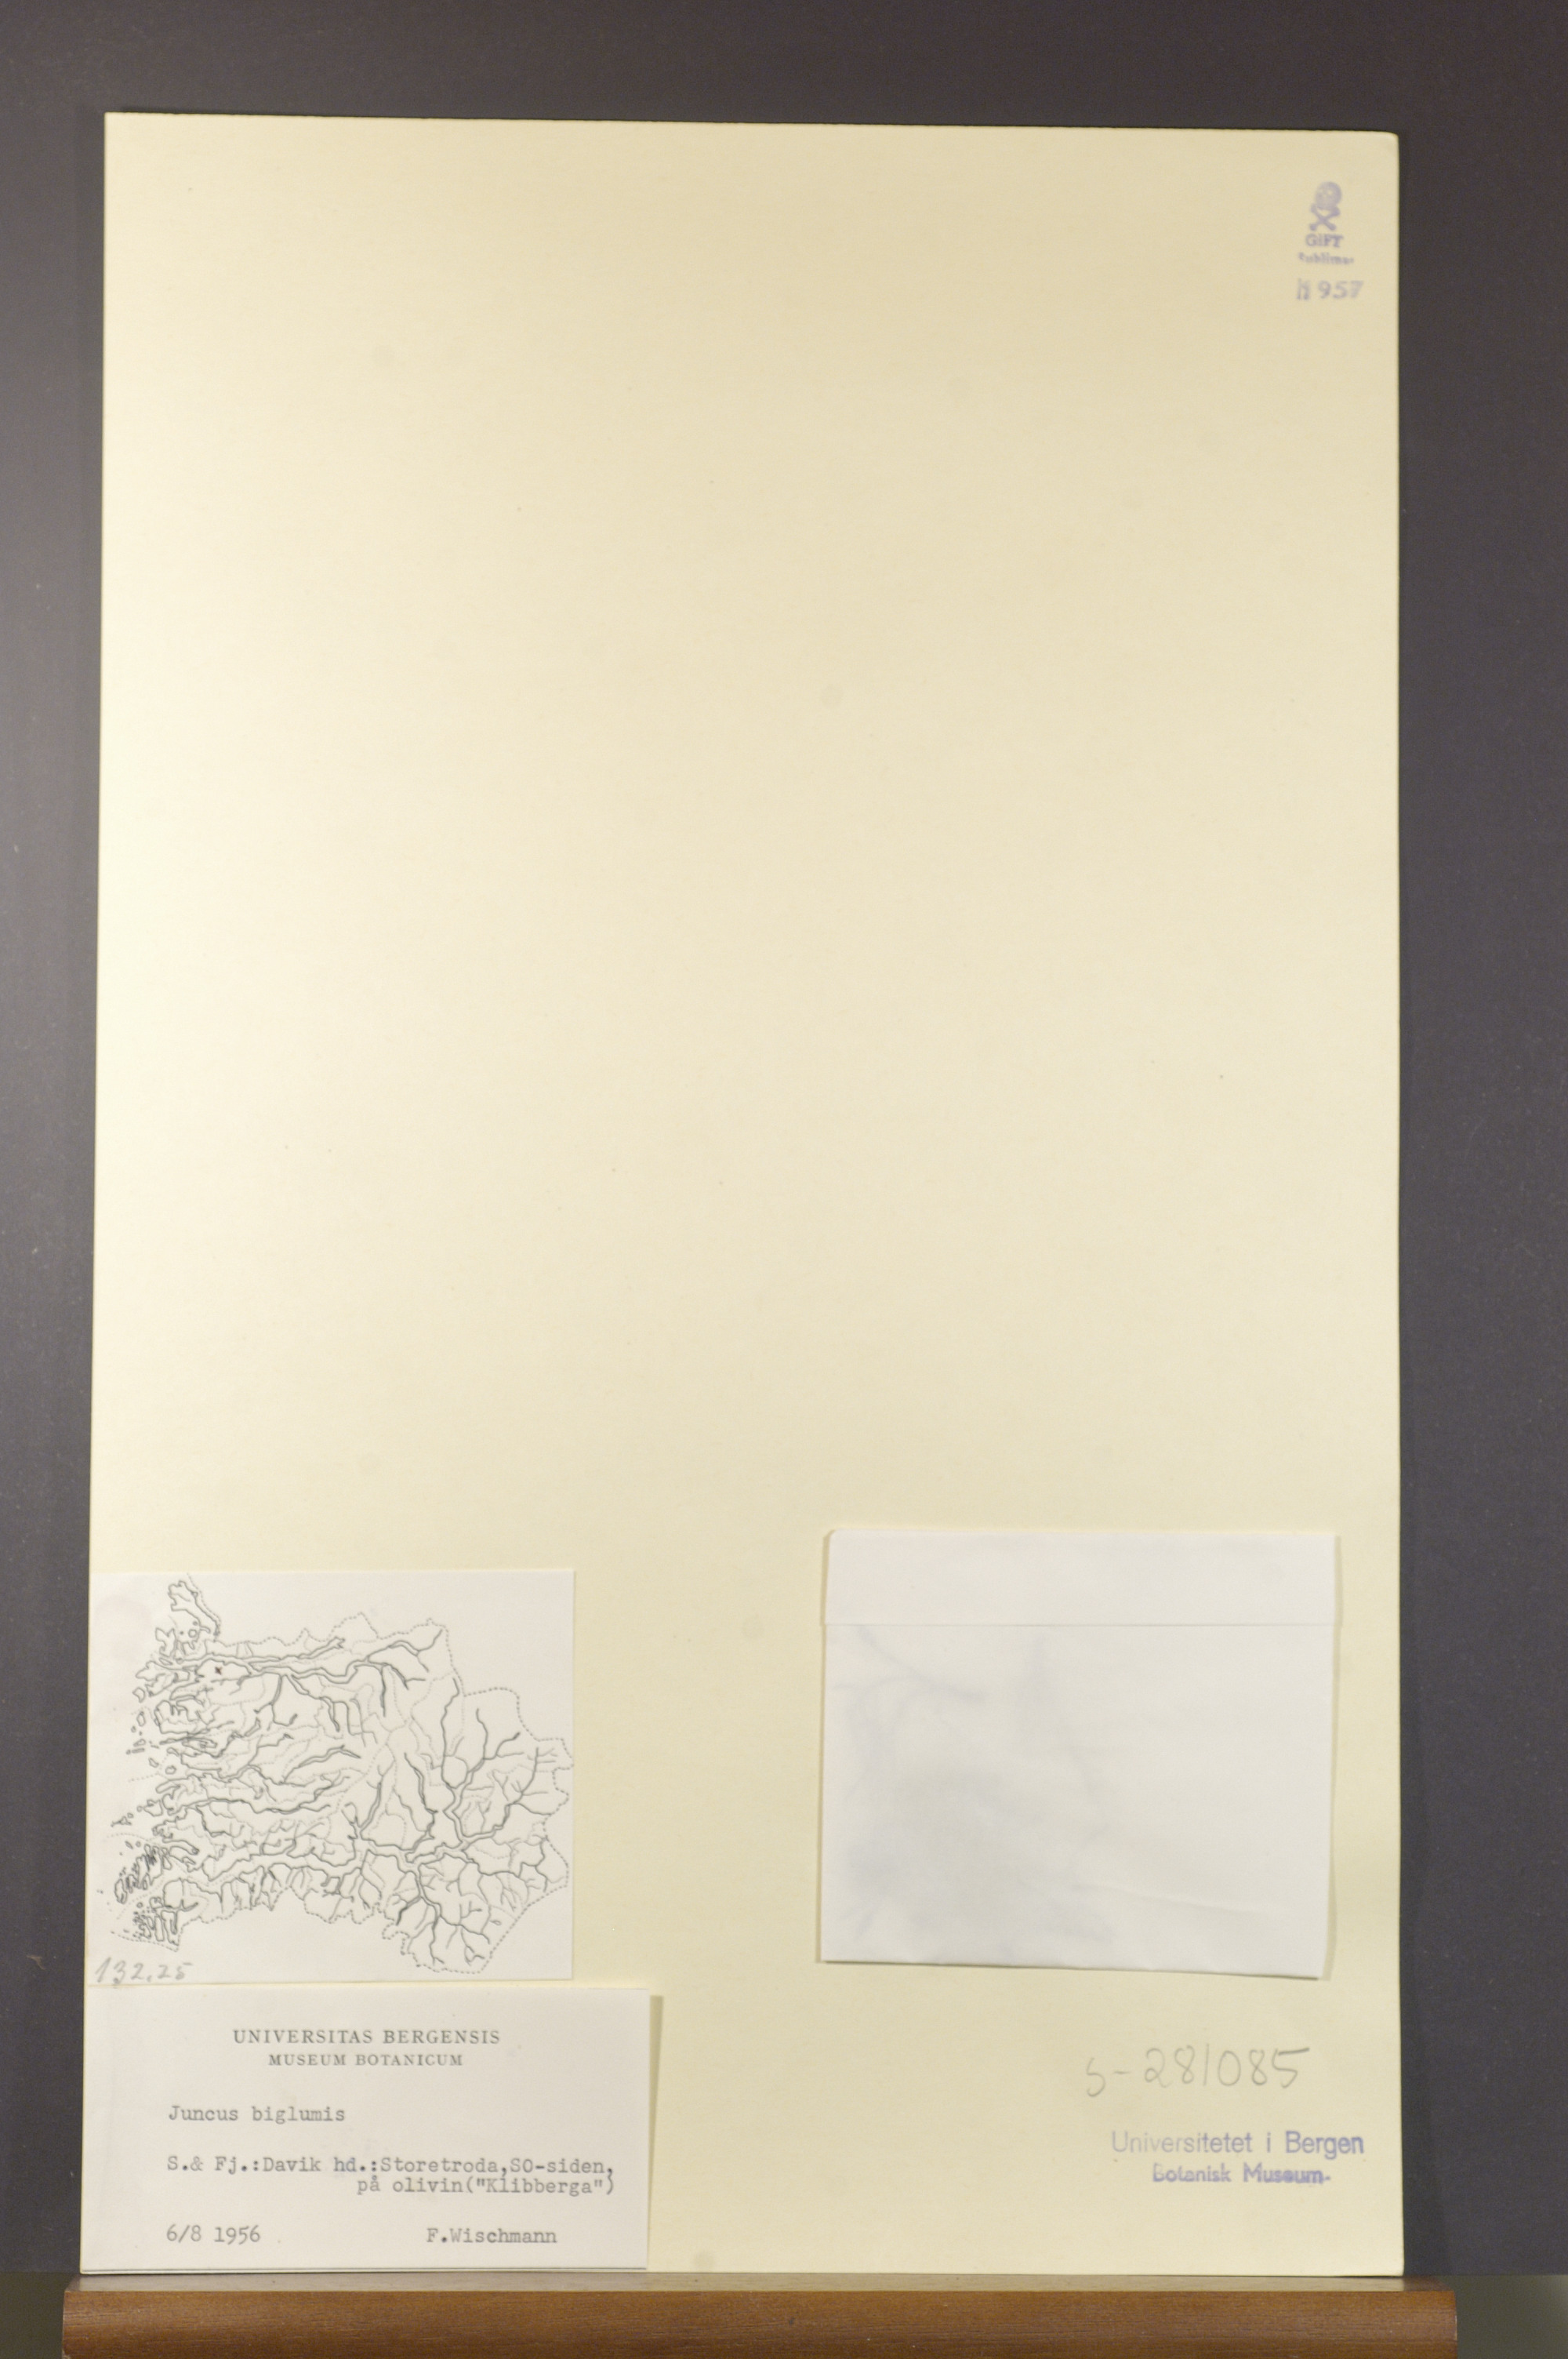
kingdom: Plantae
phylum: Tracheophyta
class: Liliopsida
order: Poales
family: Juncaceae
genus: Juncus
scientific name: Juncus biglumis
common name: Two-flowered rush
